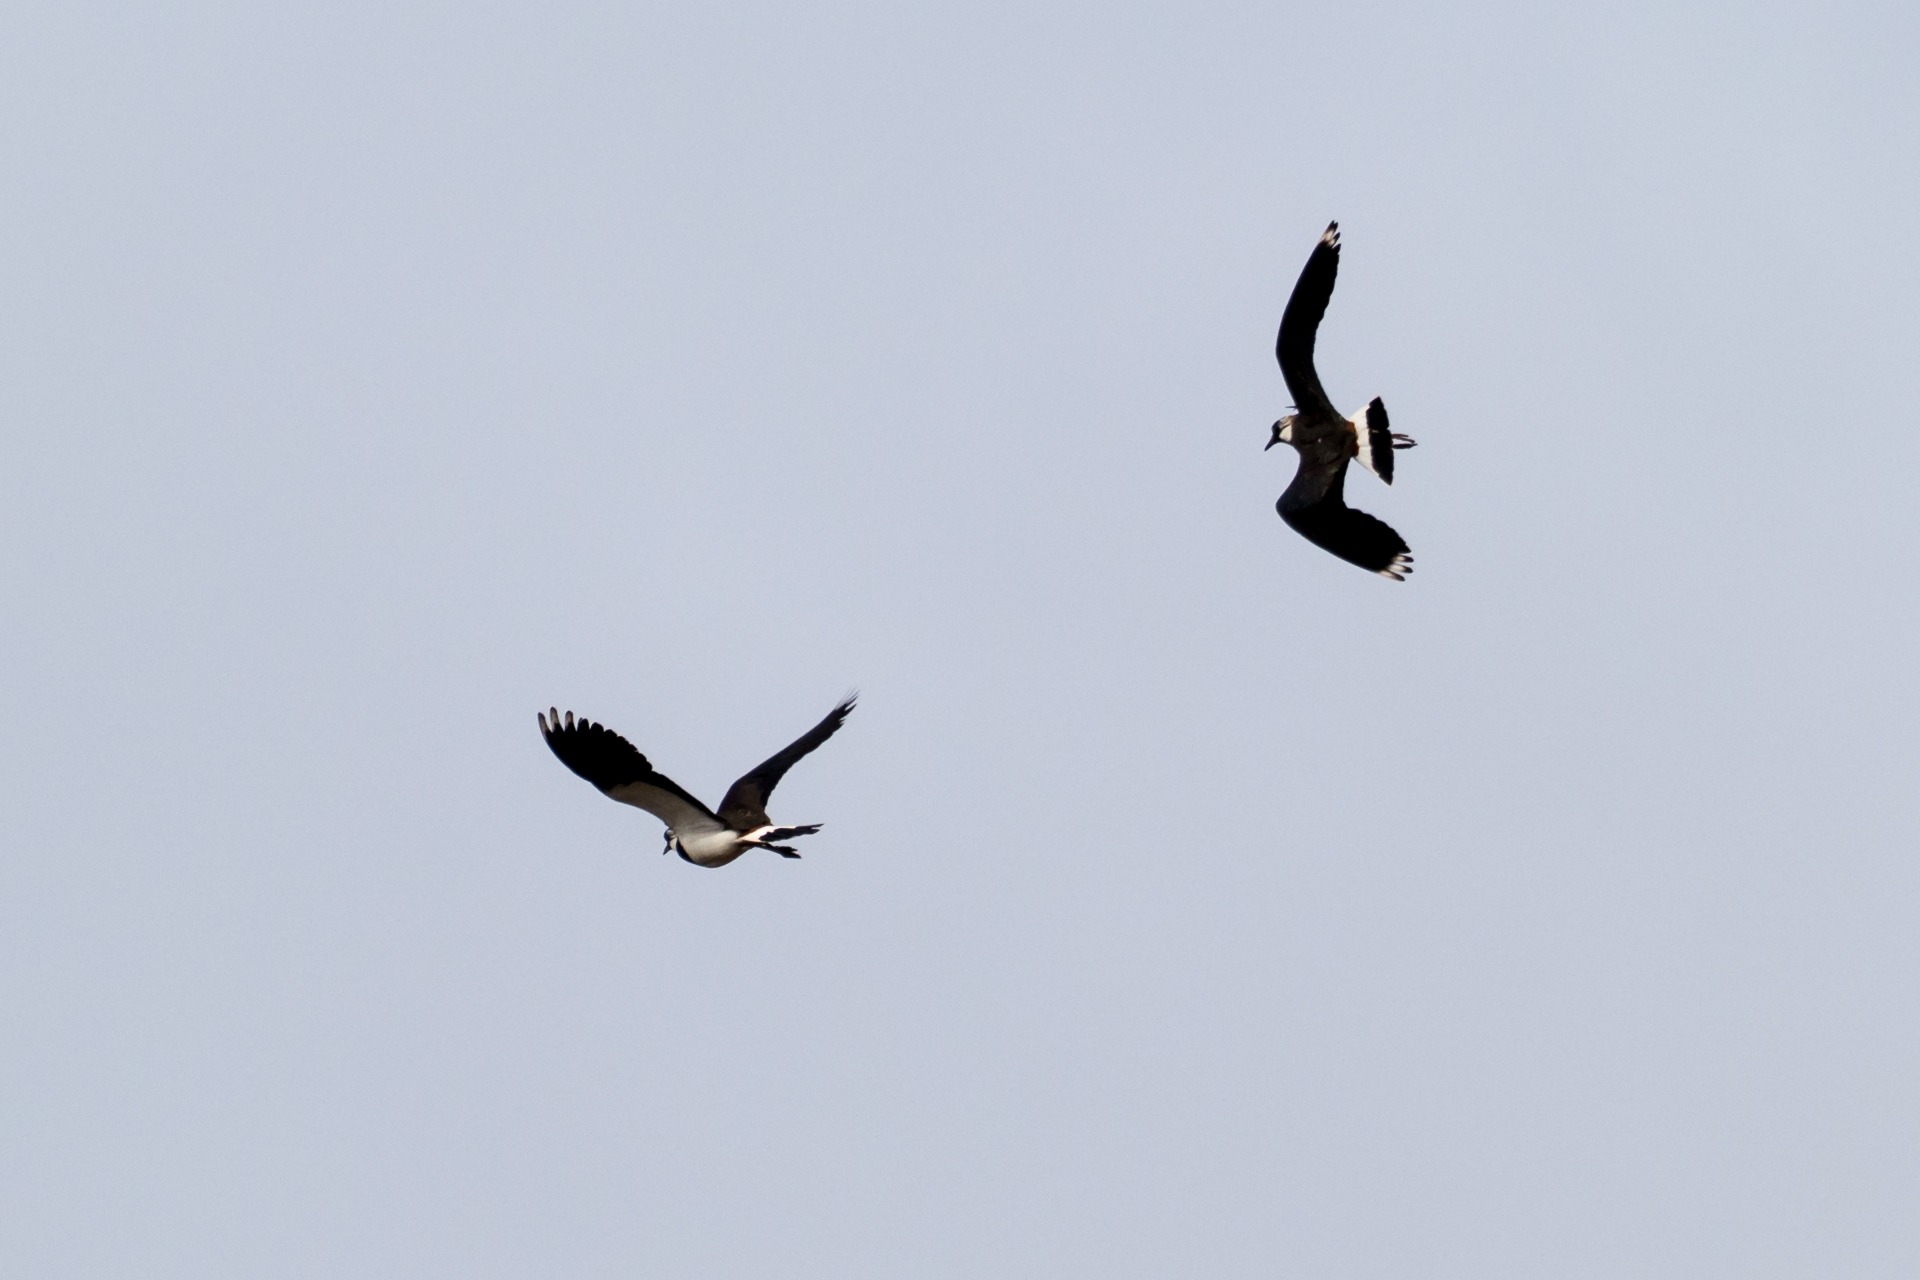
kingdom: Animalia
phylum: Chordata
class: Aves
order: Charadriiformes
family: Charadriidae
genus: Vanellus
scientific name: Vanellus vanellus
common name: Vibe
